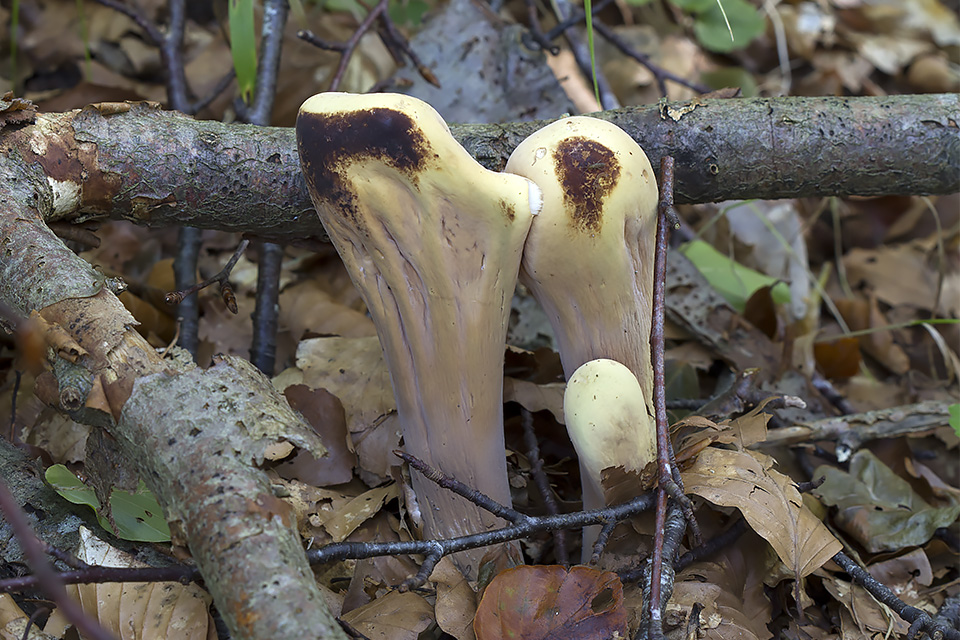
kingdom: Fungi
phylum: Basidiomycota
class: Agaricomycetes
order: Gomphales
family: Clavariadelphaceae
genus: Clavariadelphus
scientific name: Clavariadelphus pistillaris
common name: herkules-kæmpekølle
